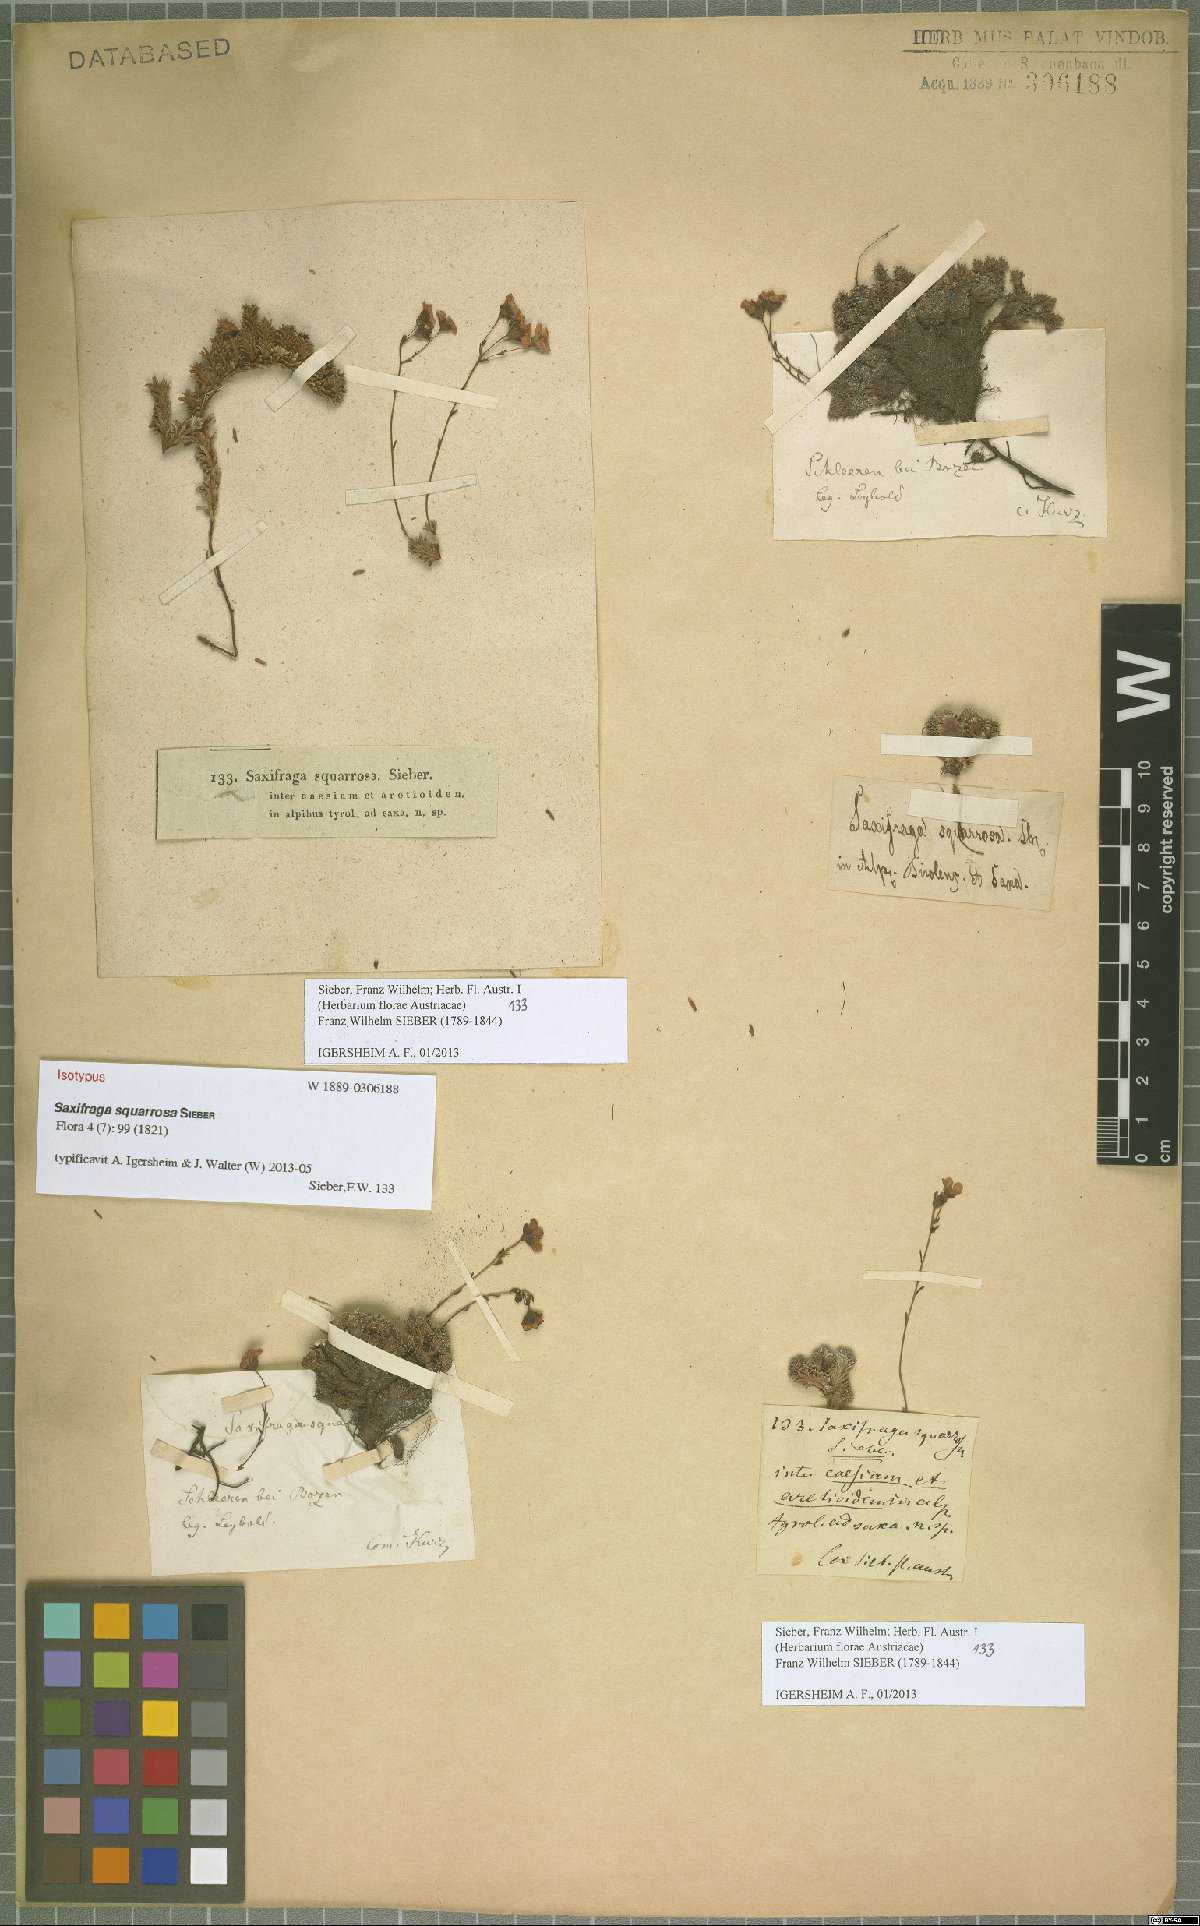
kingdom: Plantae
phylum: Tracheophyta
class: Magnoliopsida
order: Saxifragales
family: Saxifragaceae
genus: Saxifraga
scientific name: Saxifraga squarrosa
